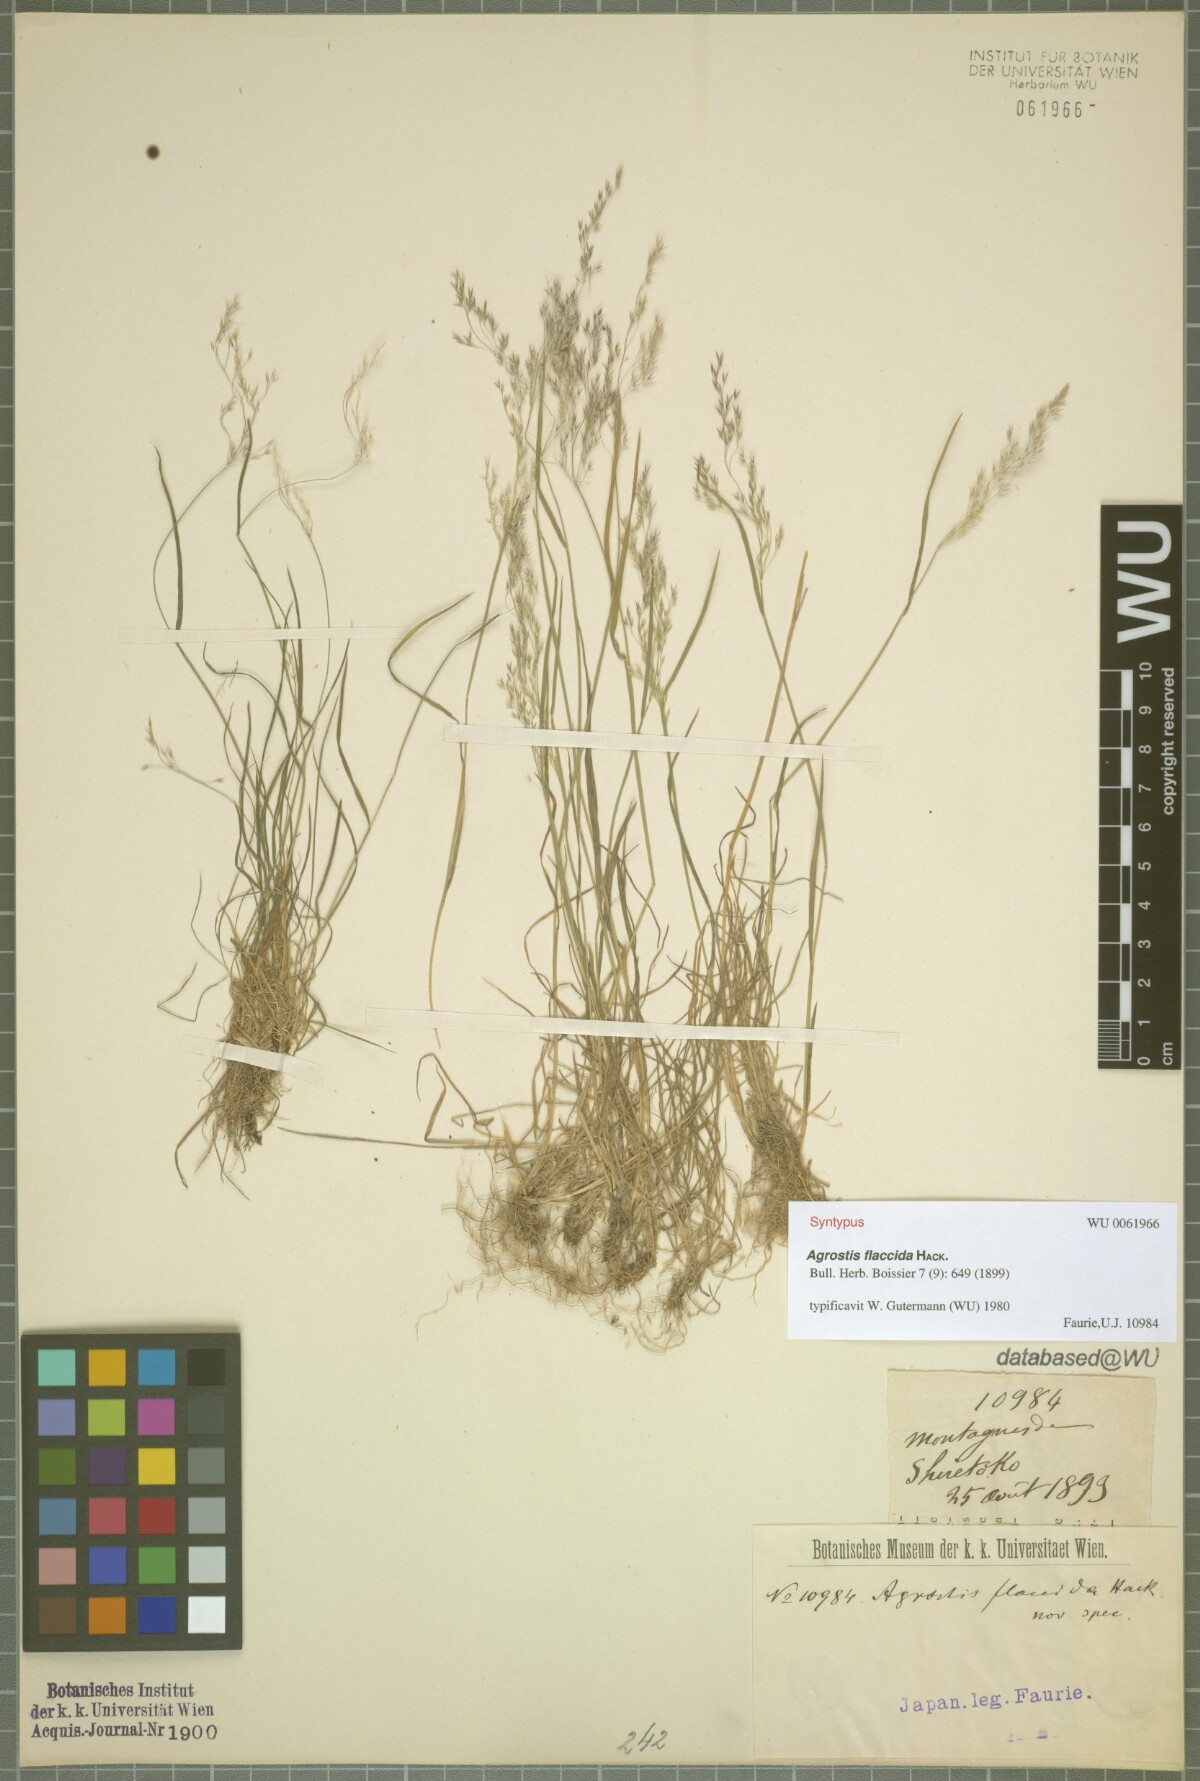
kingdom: Plantae
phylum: Tracheophyta
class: Liliopsida
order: Poales
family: Poaceae
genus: Agrostis
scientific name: Agrostis flaccida
